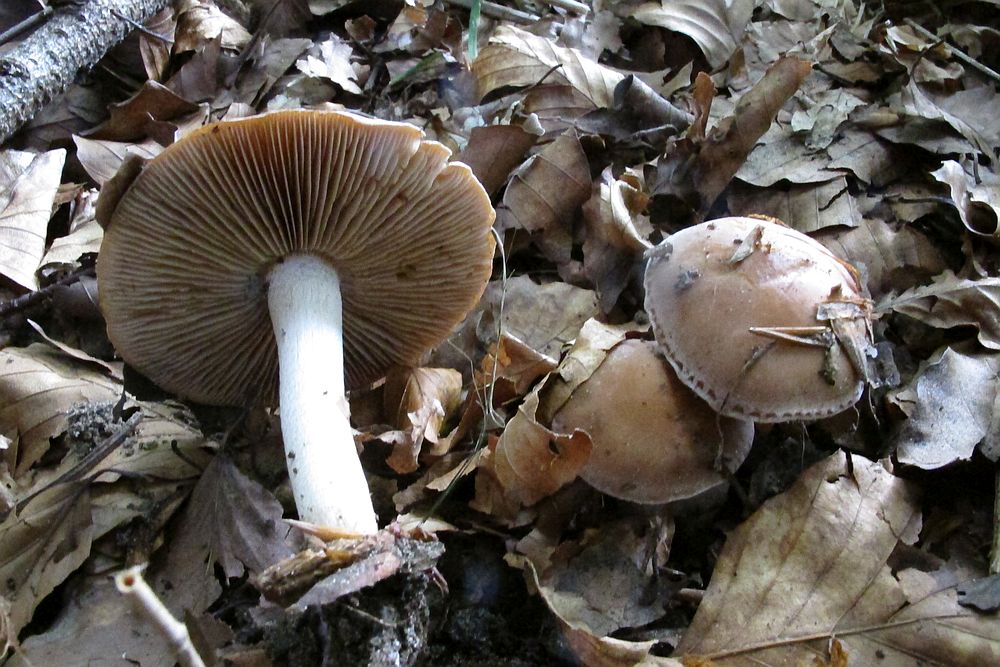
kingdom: Fungi
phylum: Basidiomycota
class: Agaricomycetes
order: Agaricales
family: Hymenogastraceae
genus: Hebeloma
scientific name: Hebeloma
